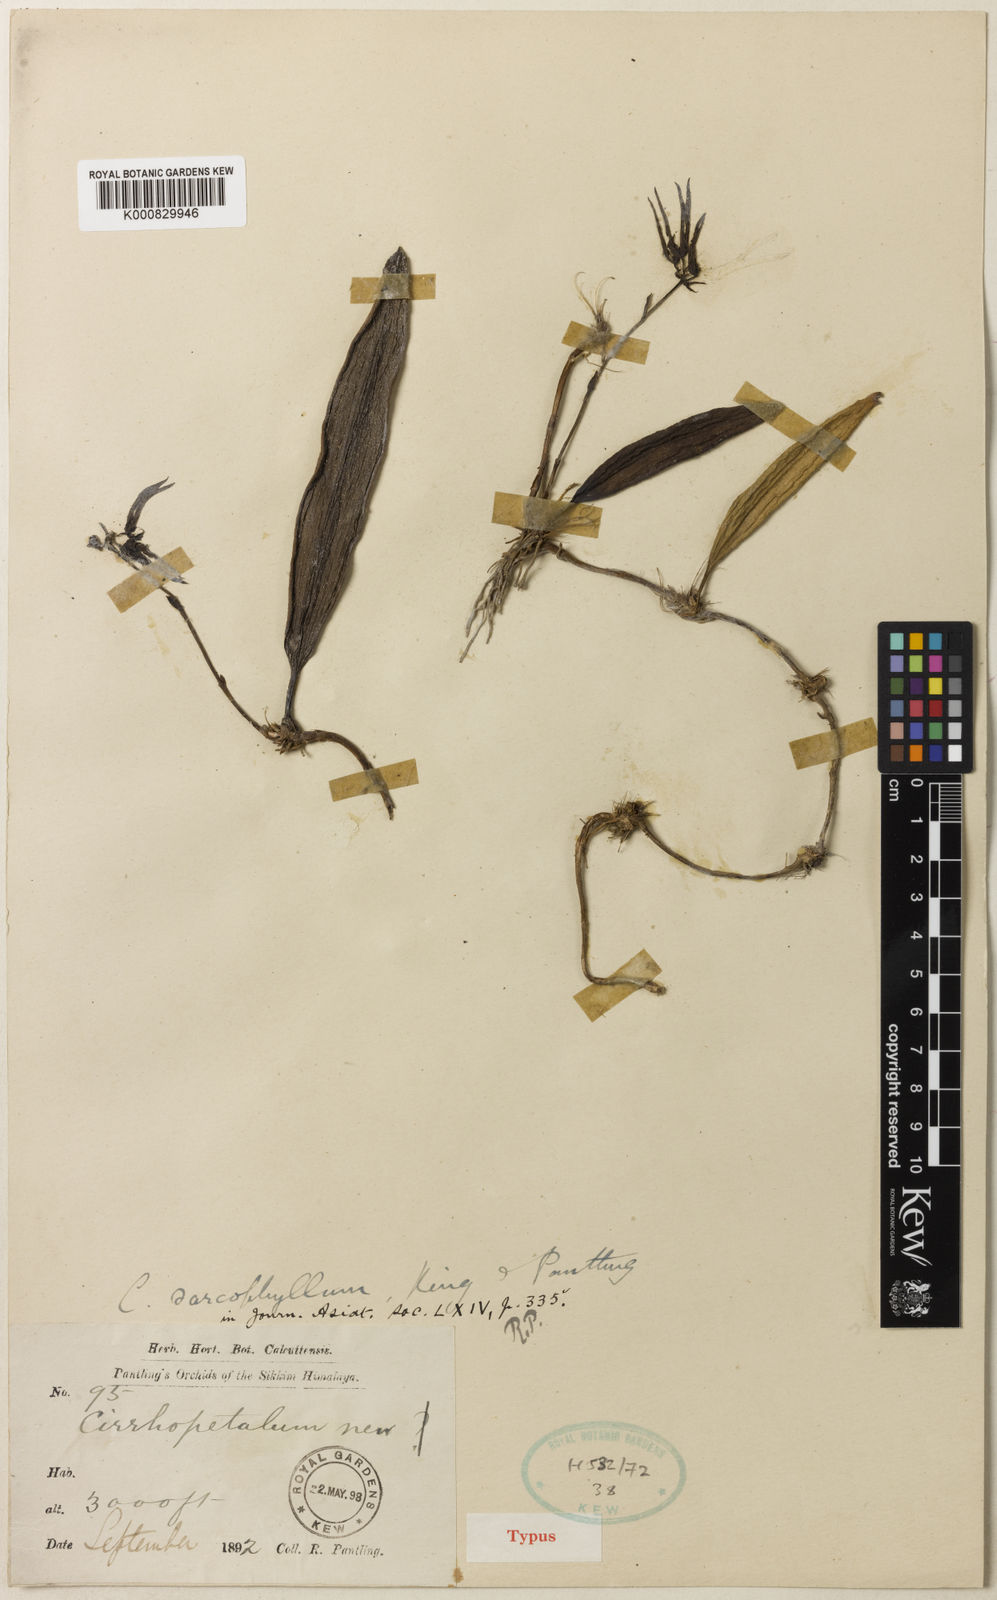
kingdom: Plantae
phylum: Tracheophyta
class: Liliopsida
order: Asparagales
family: Orchidaceae
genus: Bulbophyllum
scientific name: Bulbophyllum sarcophyllum
